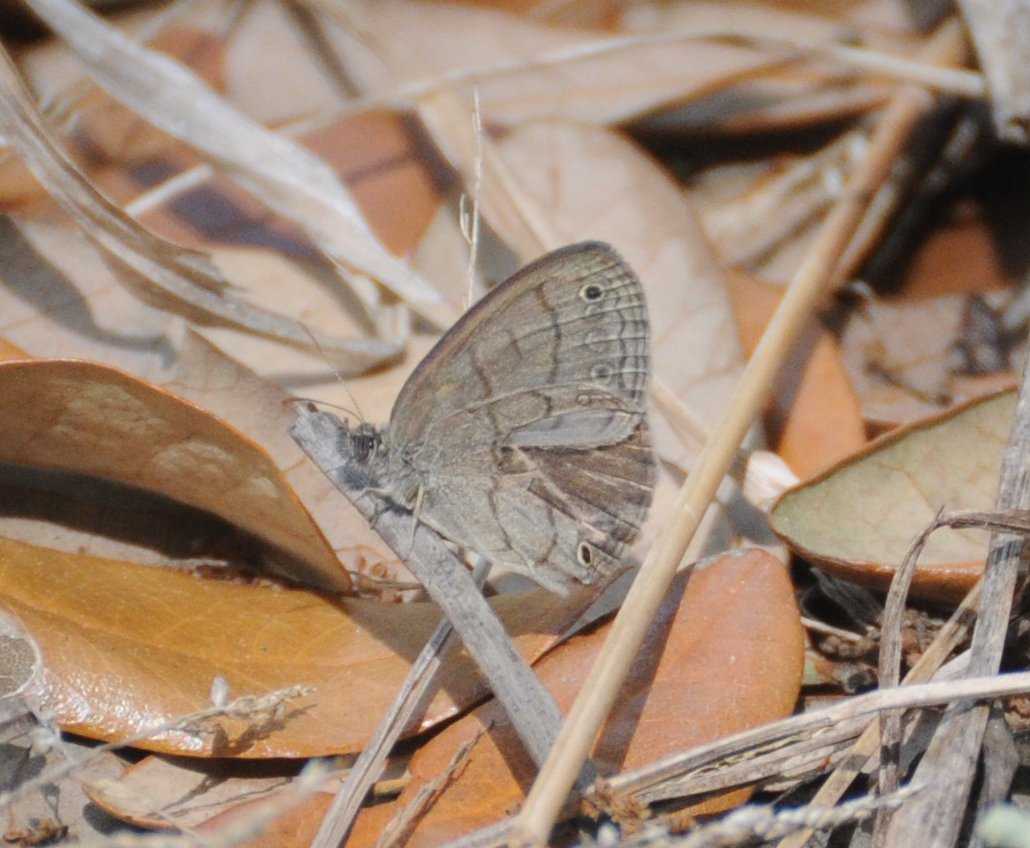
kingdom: Animalia
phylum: Arthropoda
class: Insecta
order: Lepidoptera
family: Nymphalidae
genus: Hermeuptychia
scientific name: Hermeuptychia hermes
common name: Carolina Satyr
